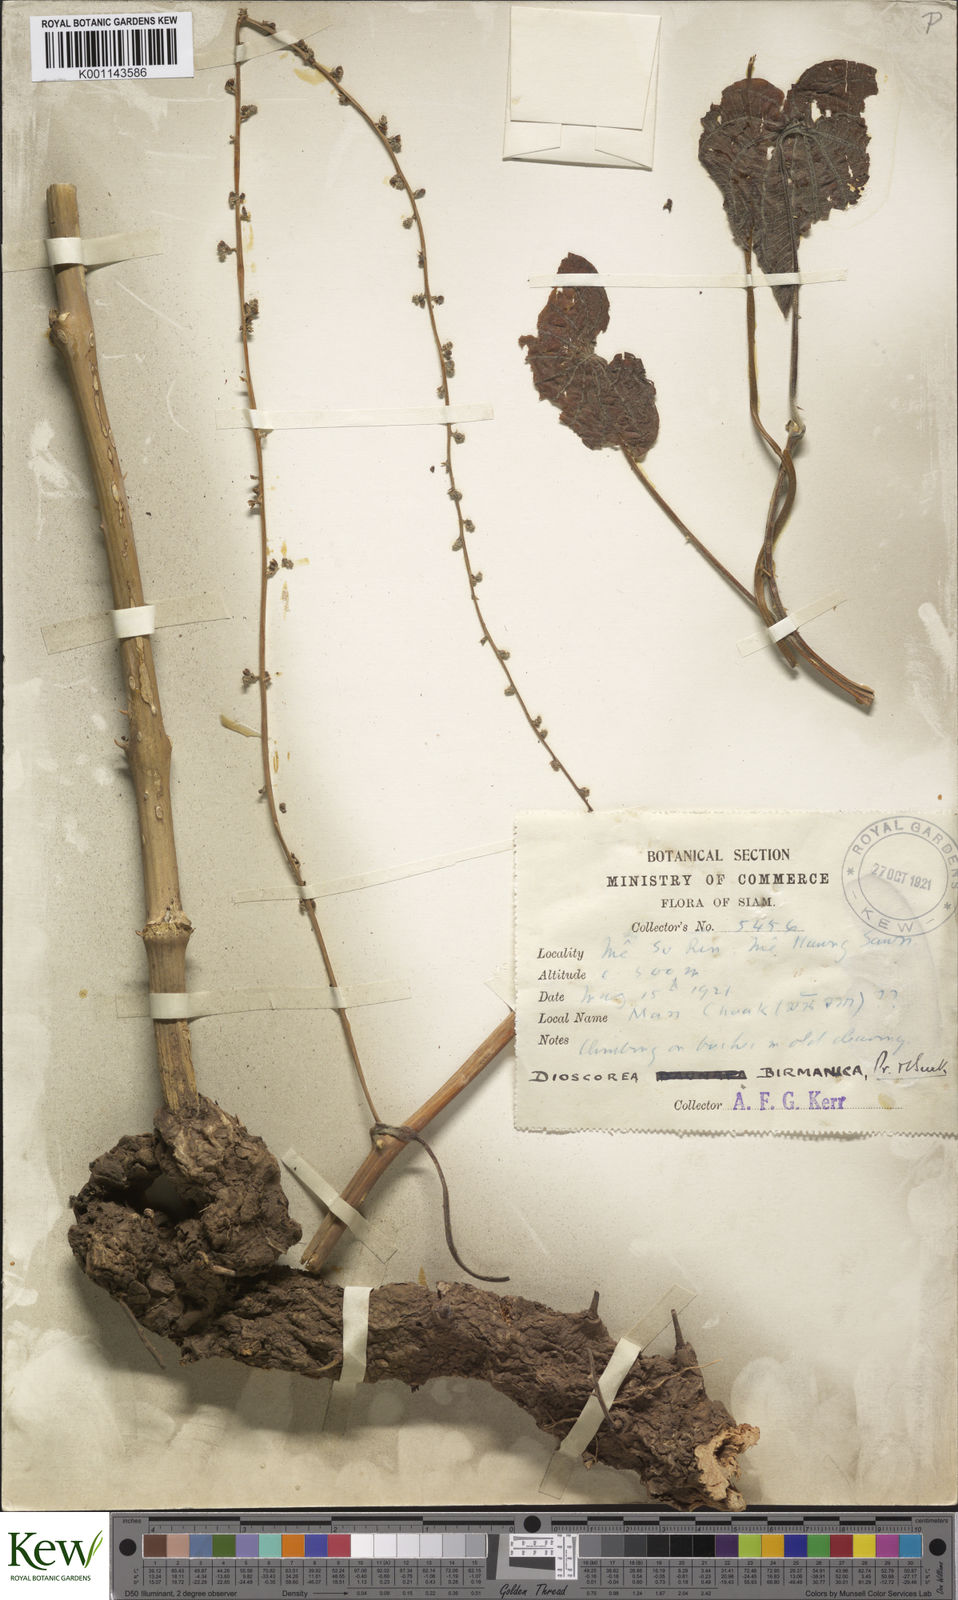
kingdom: Plantae
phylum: Tracheophyta
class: Liliopsida
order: Dioscoreales
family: Dioscoreaceae
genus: Dioscorea
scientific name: Dioscorea birmanica
